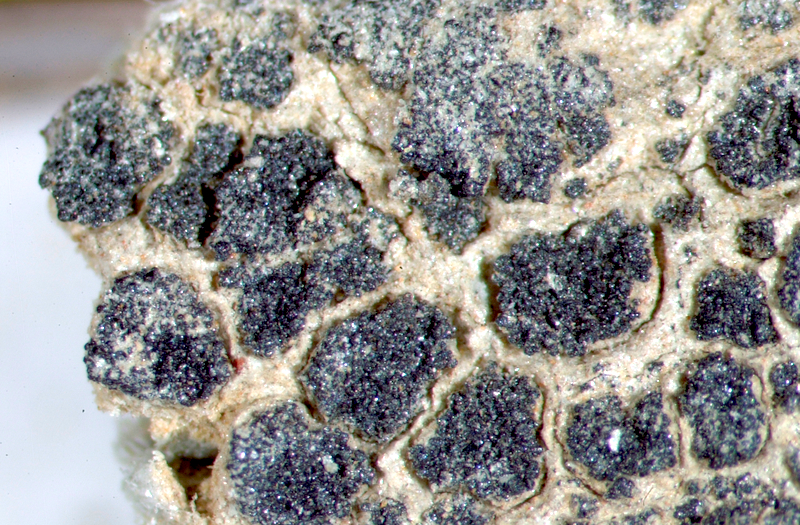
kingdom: Fungi
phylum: Ascomycota
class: Lichinomycetes
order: Lichinales
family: Lichinaceae
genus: Lichinella
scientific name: Lichinella
